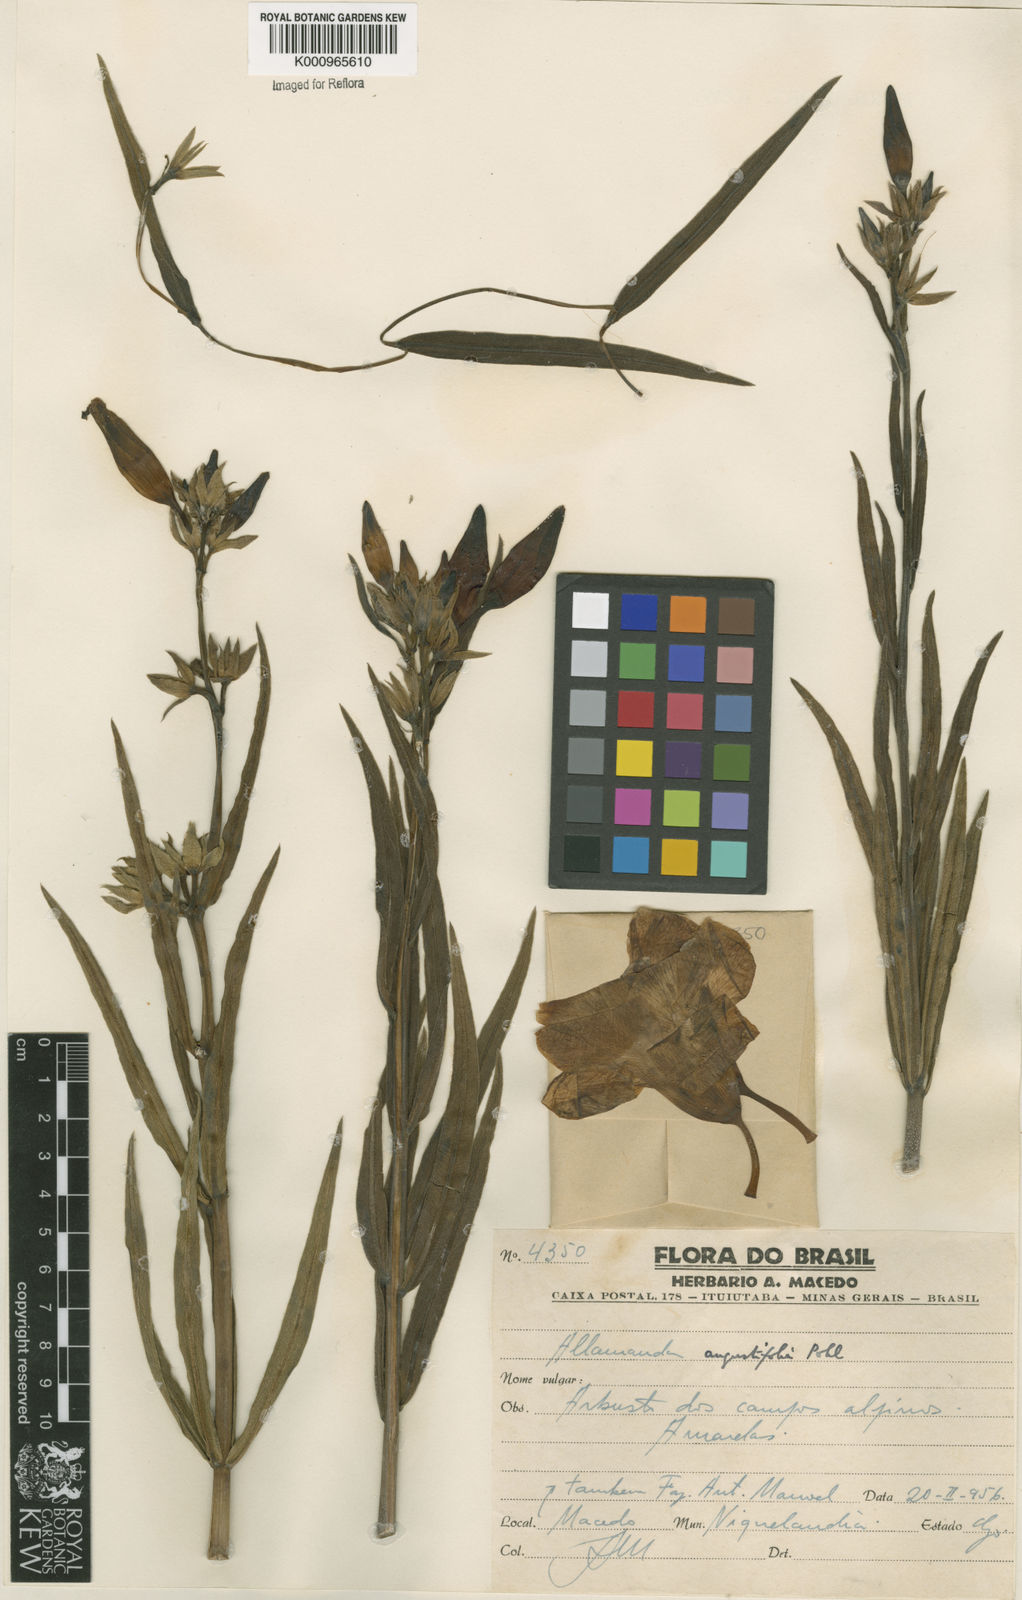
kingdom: Plantae
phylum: Tracheophyta
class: Magnoliopsida
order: Gentianales
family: Apocynaceae
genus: Allamanda
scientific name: Allamanda angustifolia
